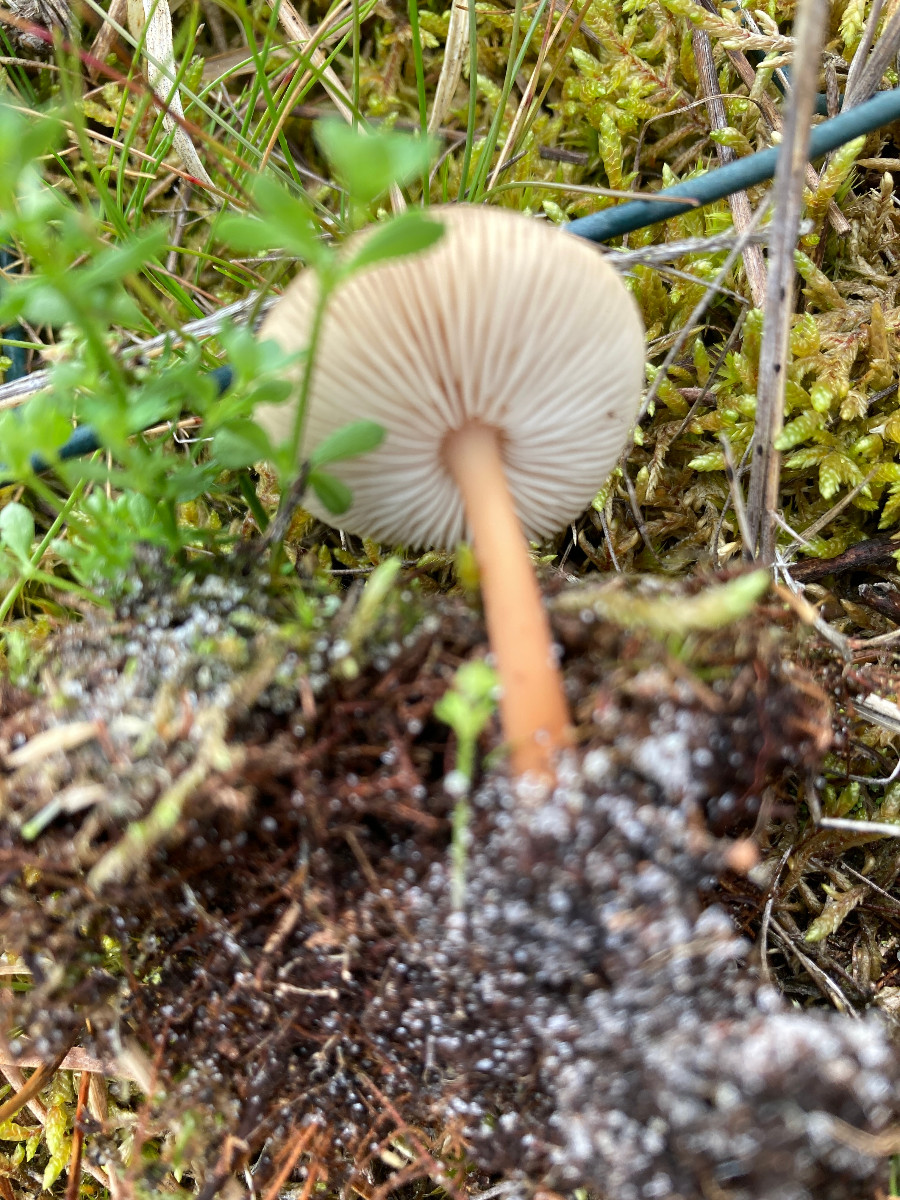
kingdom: Fungi
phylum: Basidiomycota
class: Agaricomycetes
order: Agaricales
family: Omphalotaceae
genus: Gymnopus
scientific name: Gymnopus
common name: fladhat
